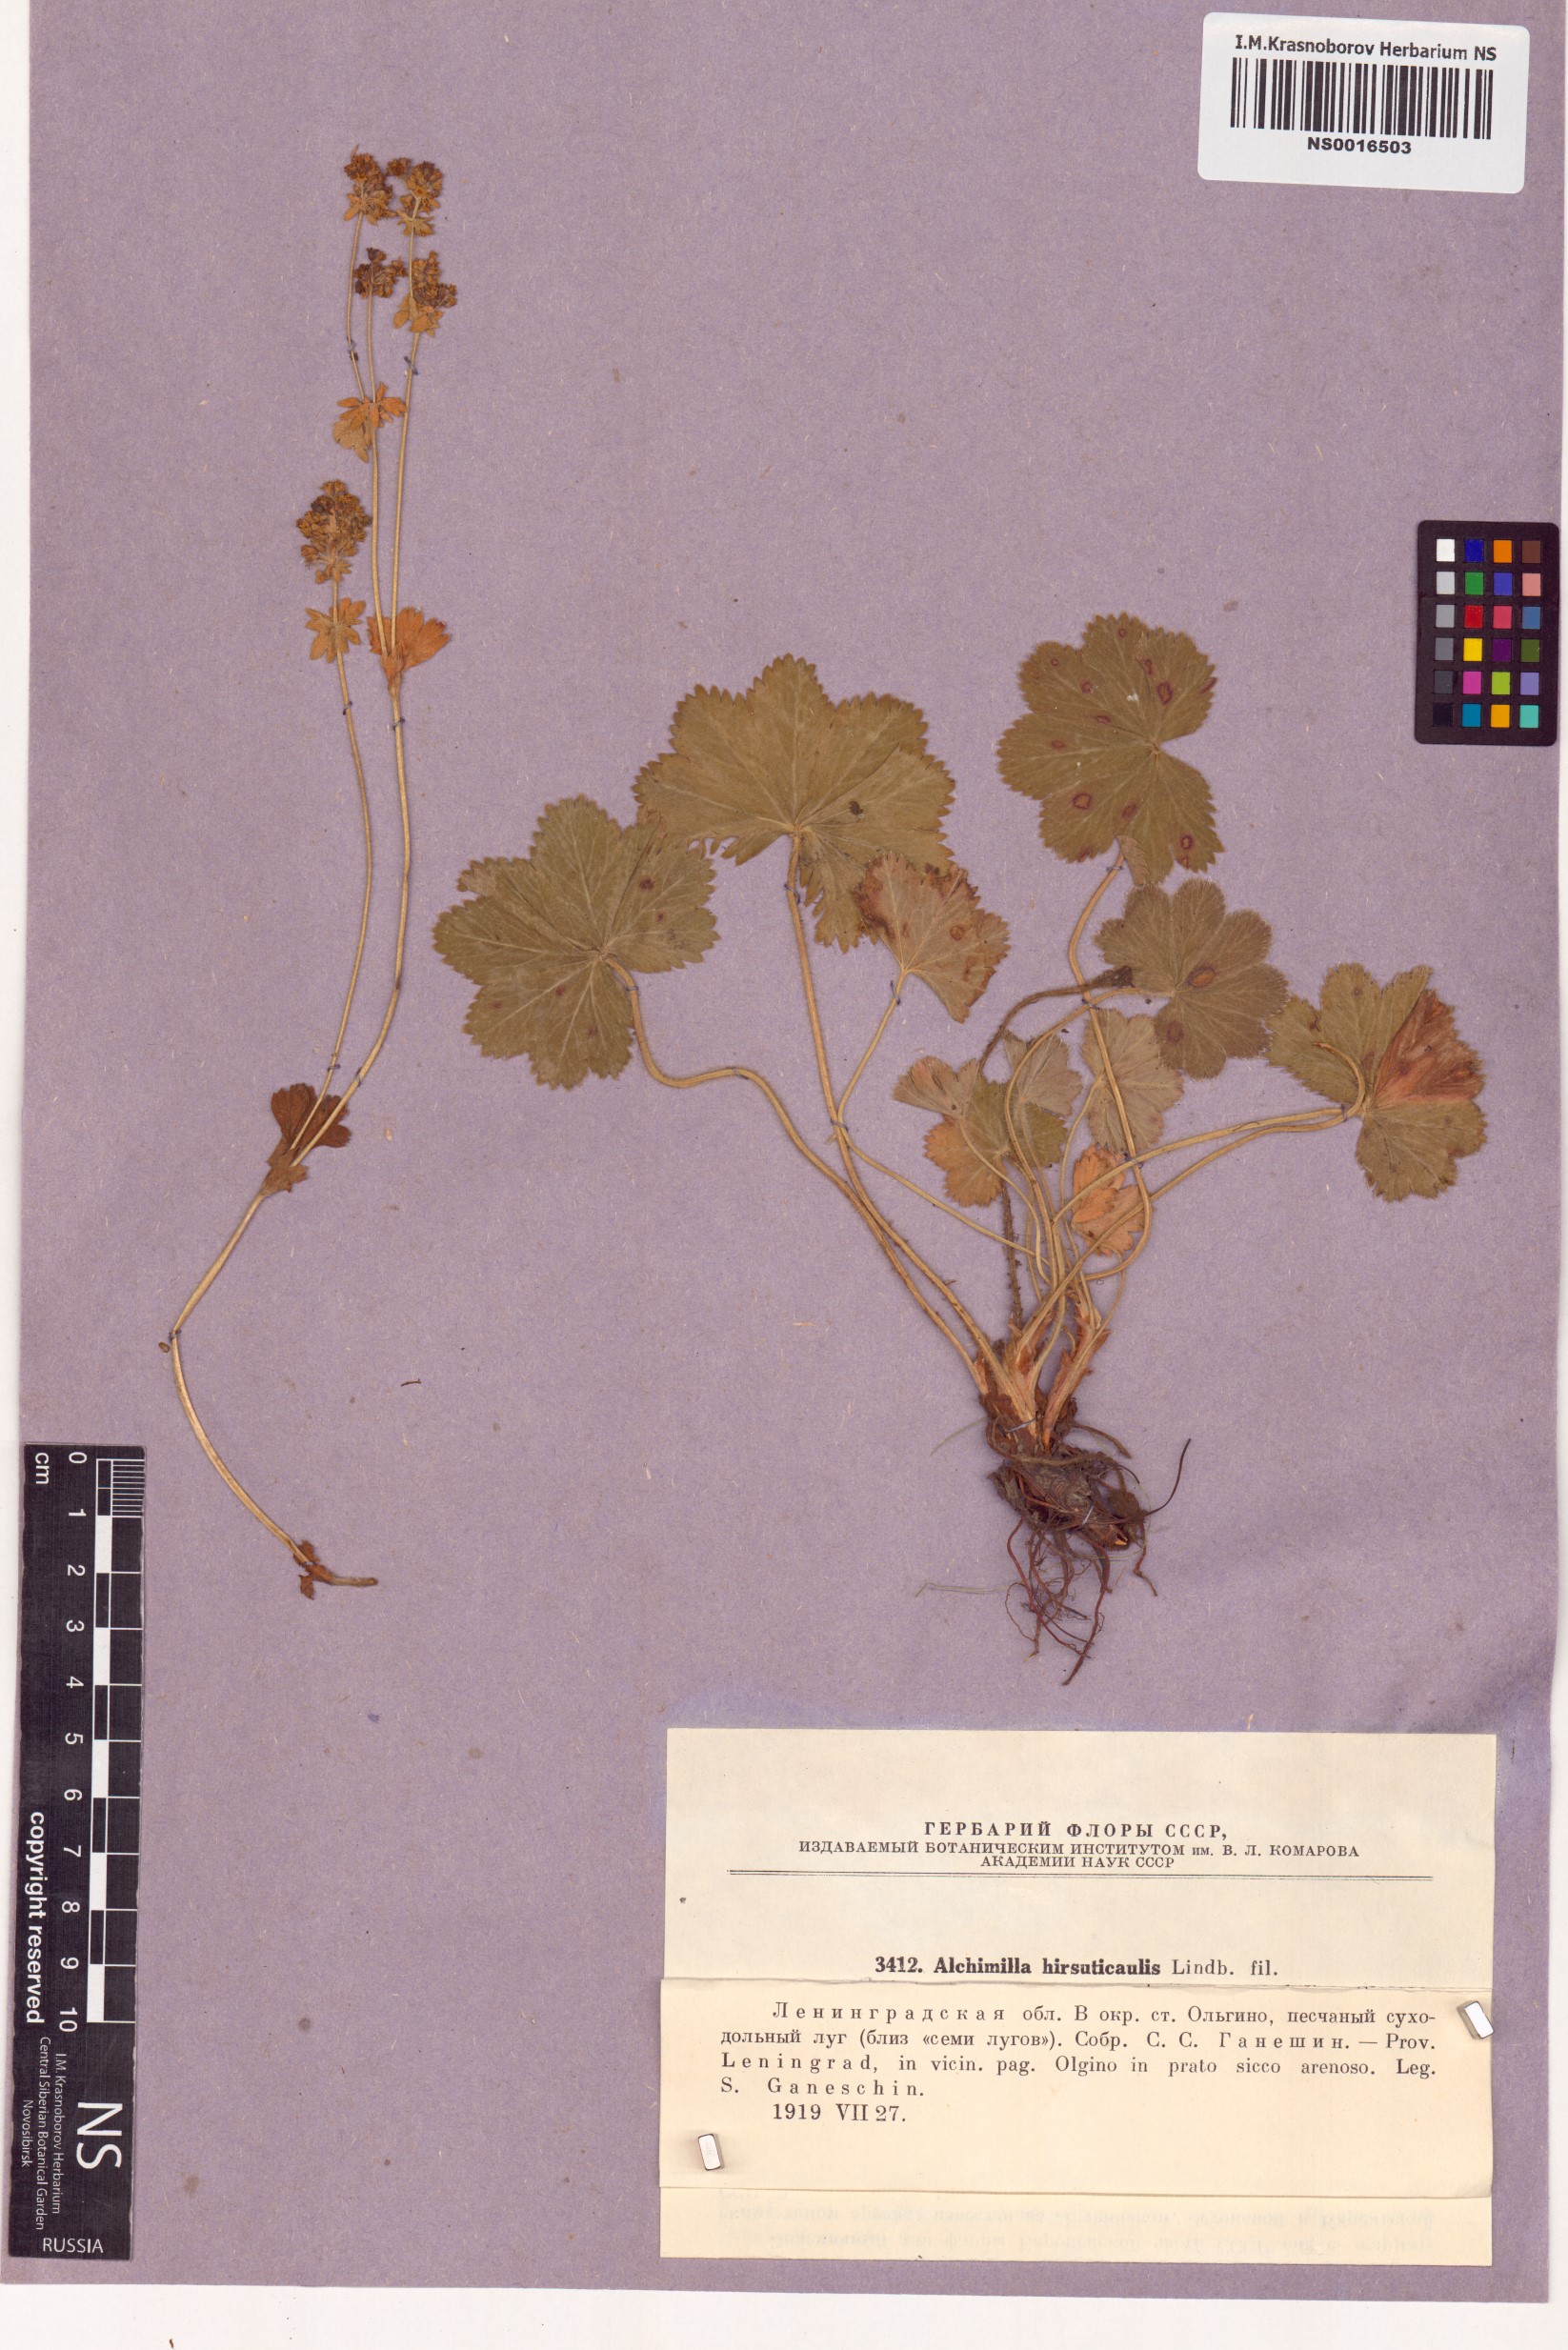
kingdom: Plantae
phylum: Tracheophyta
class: Magnoliopsida
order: Rosales
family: Rosaceae
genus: Alchemilla
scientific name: Alchemilla hirsuticaulis
